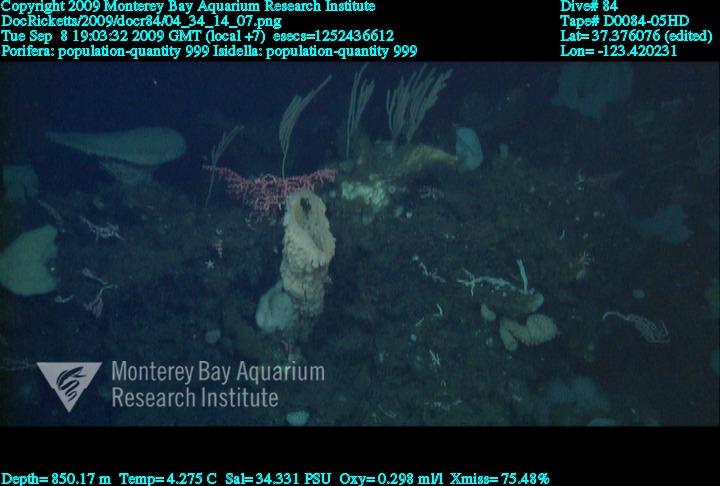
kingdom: Animalia
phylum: Porifera
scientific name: Porifera
